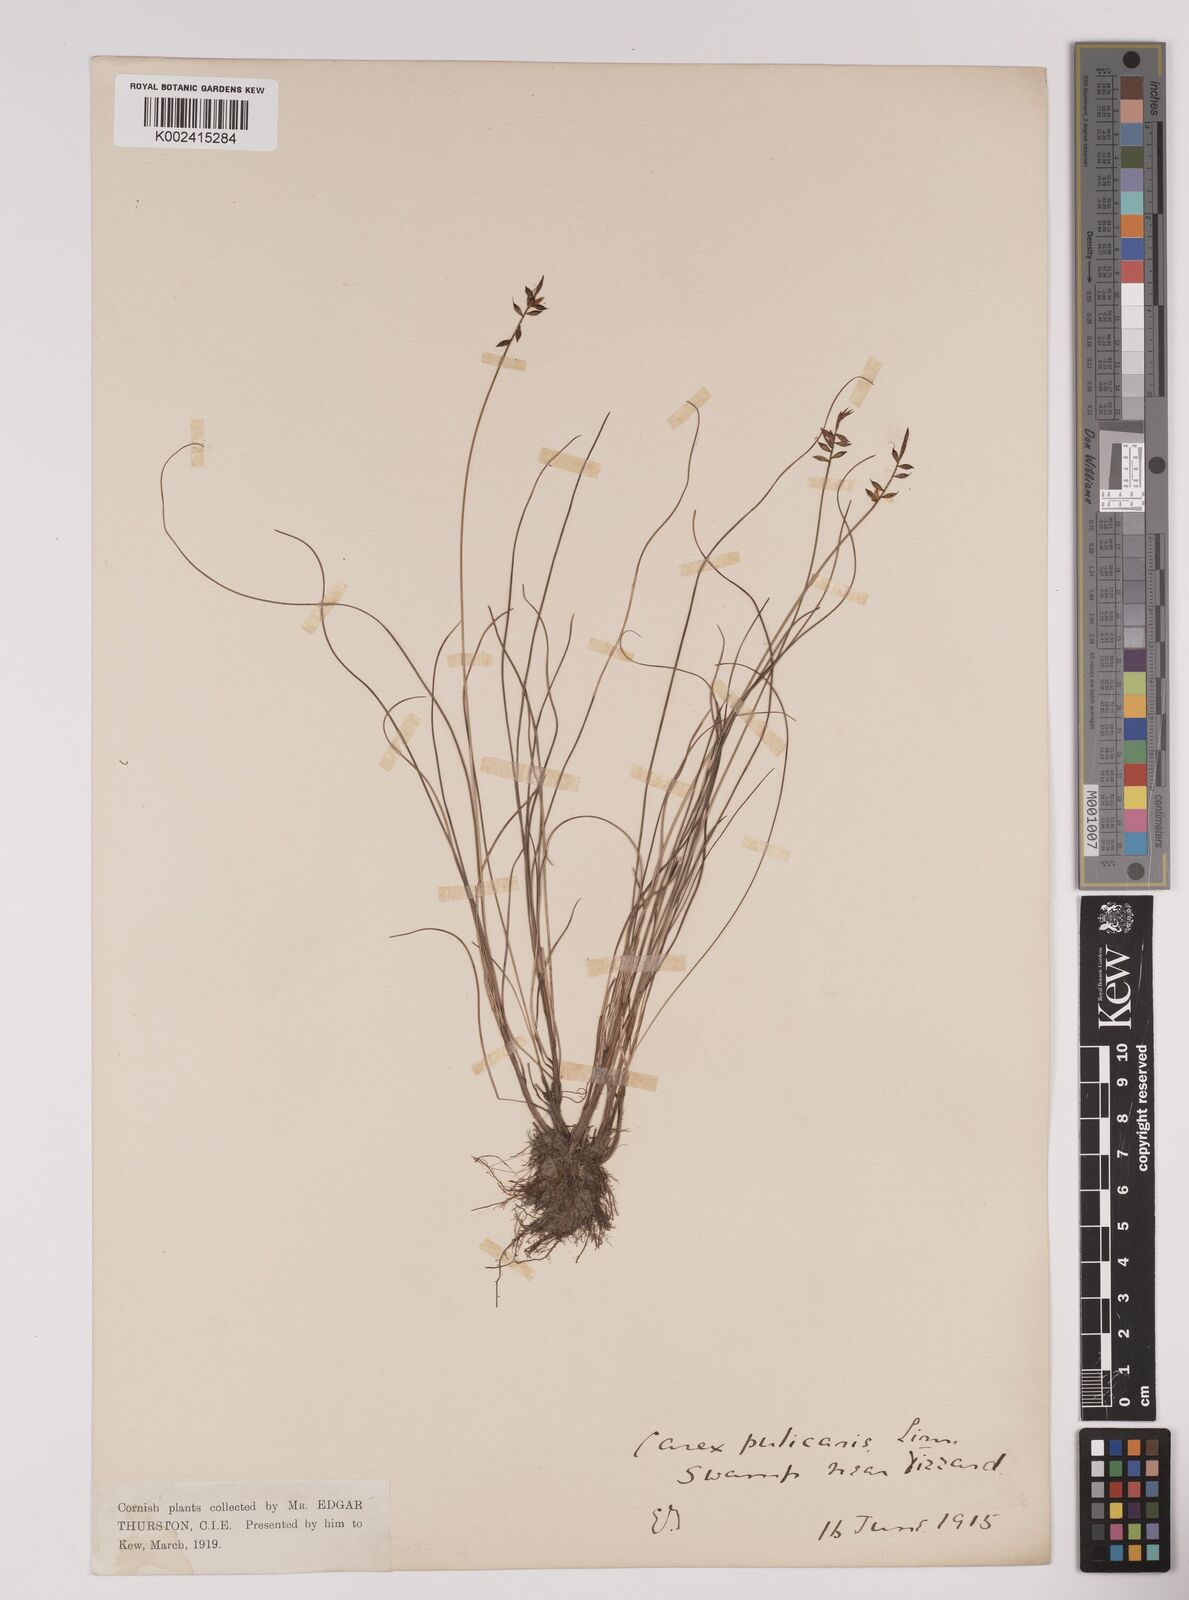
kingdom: Plantae
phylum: Tracheophyta
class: Liliopsida
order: Poales
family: Cyperaceae
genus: Carex
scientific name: Carex pulicaris
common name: Flea sedge
